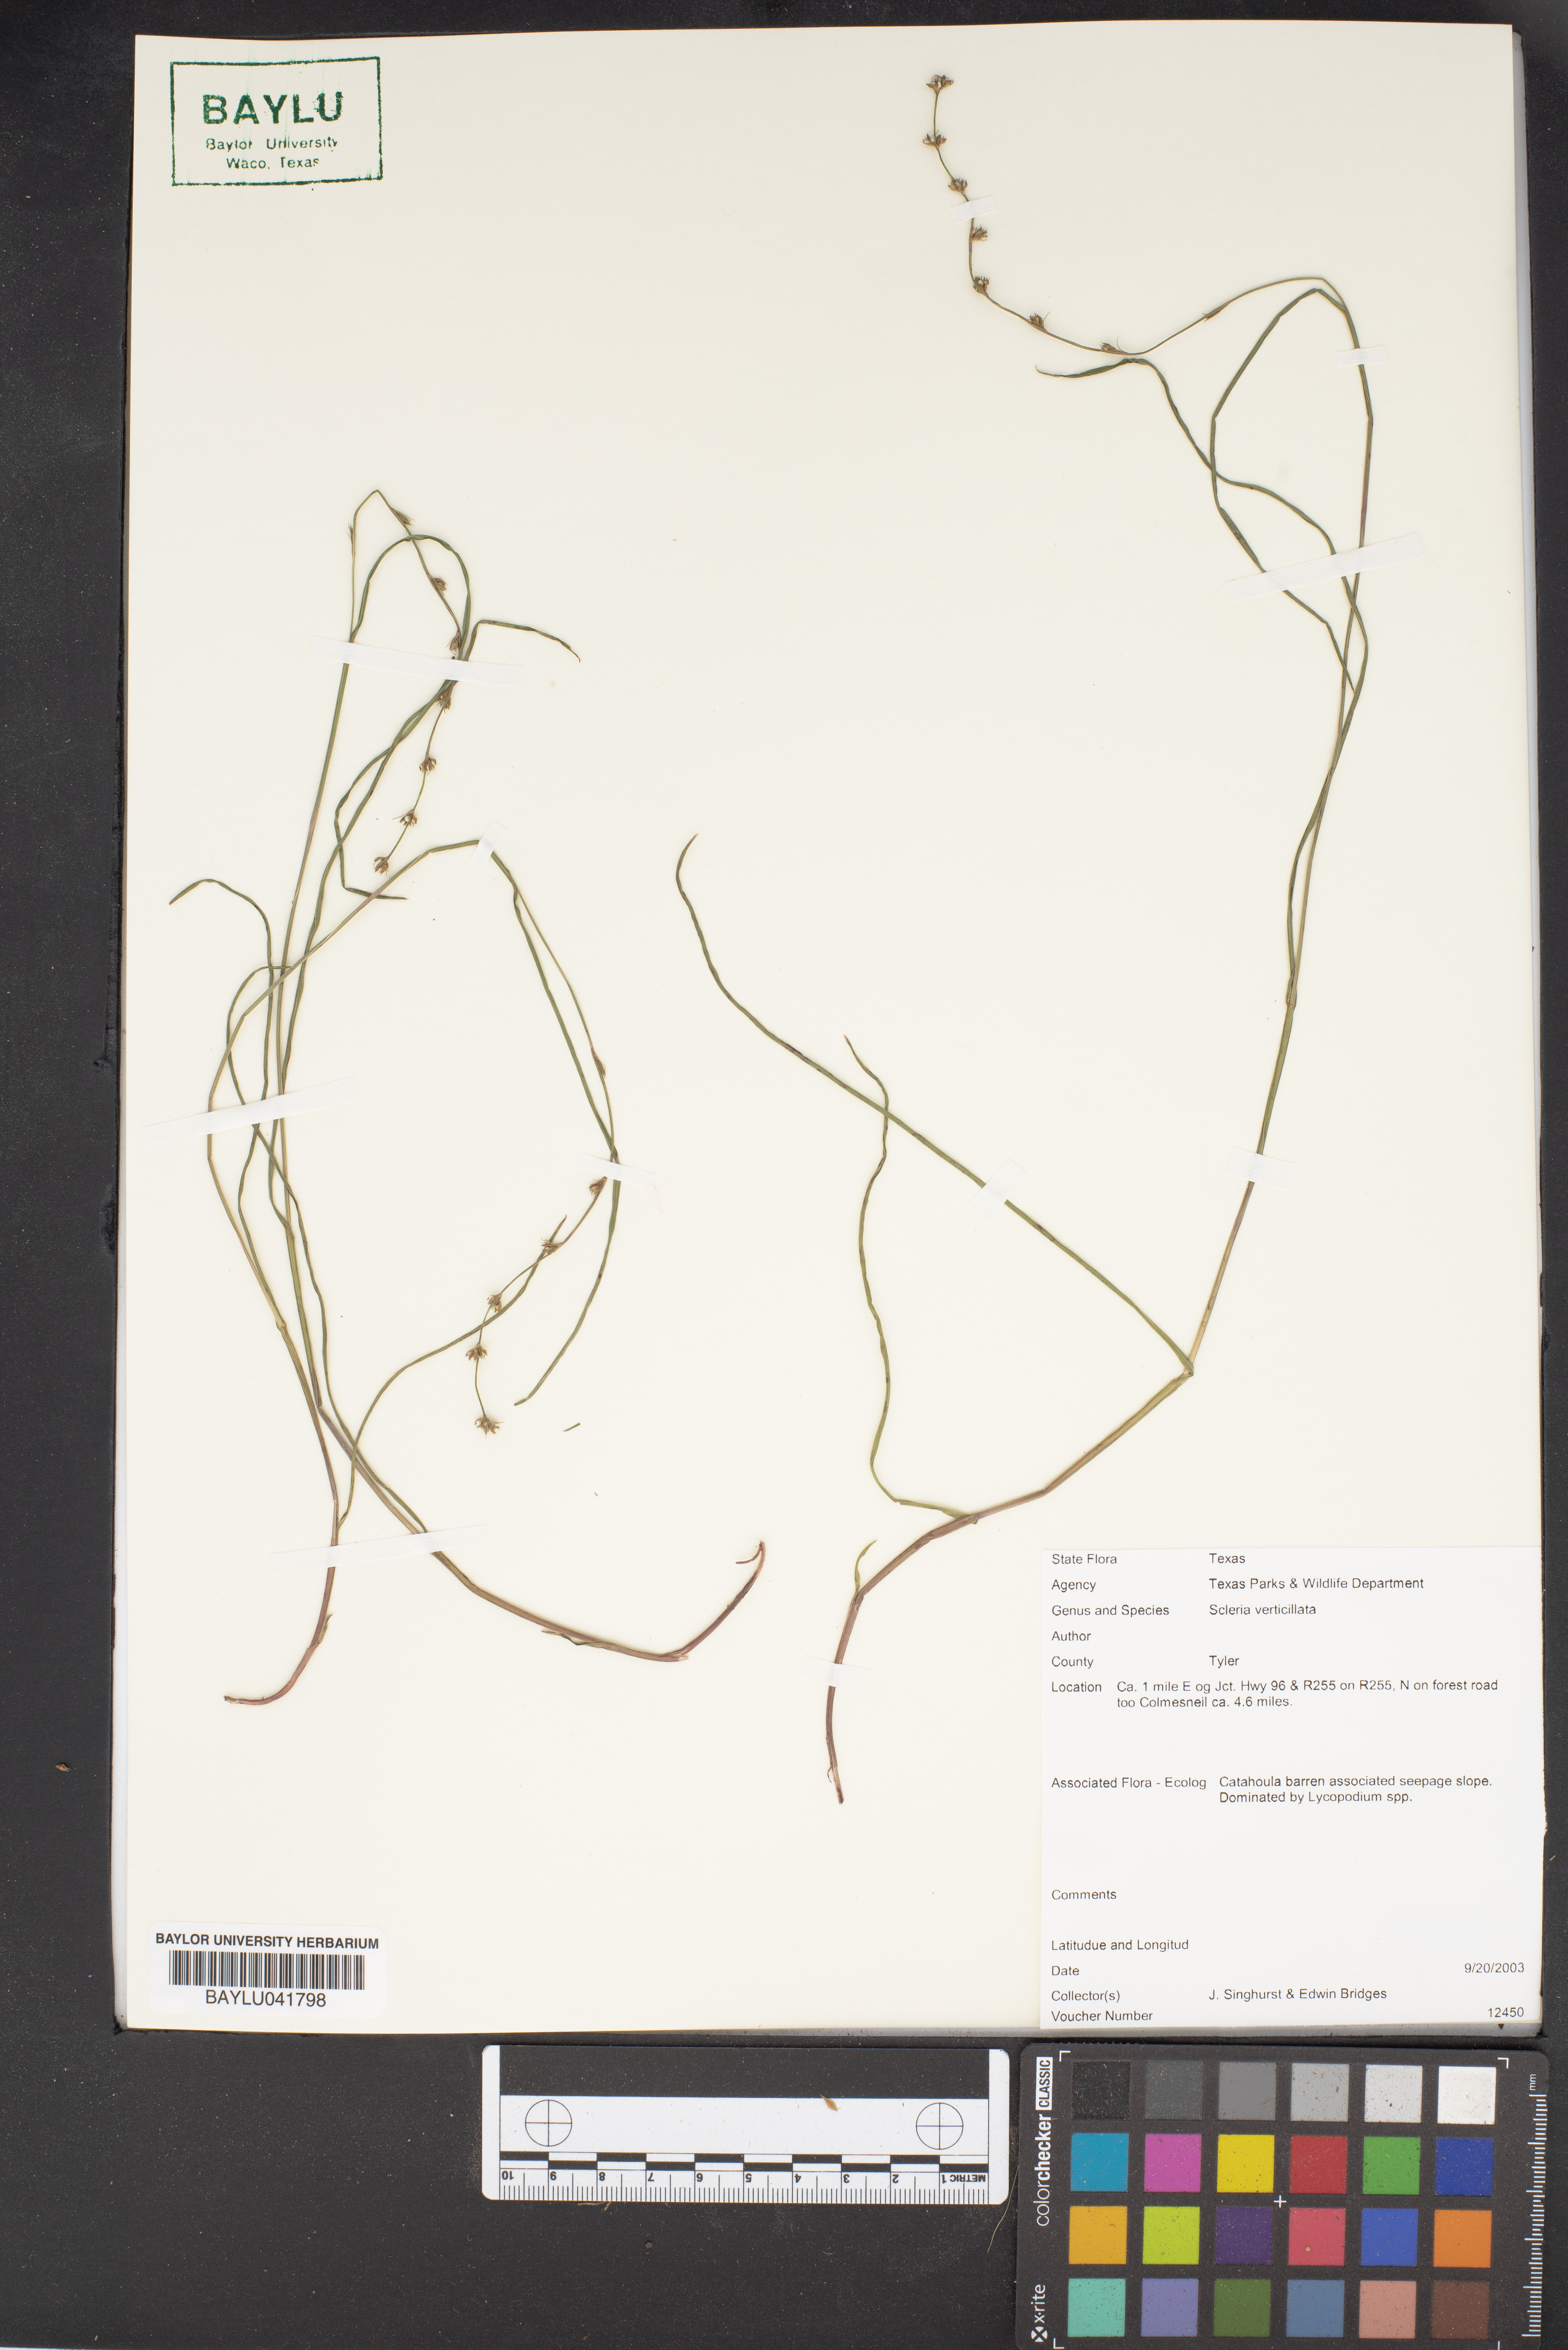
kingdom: Plantae
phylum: Tracheophyta
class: Liliopsida
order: Poales
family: Cyperaceae
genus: Scleria
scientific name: Scleria verticillata
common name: Low nutrush
